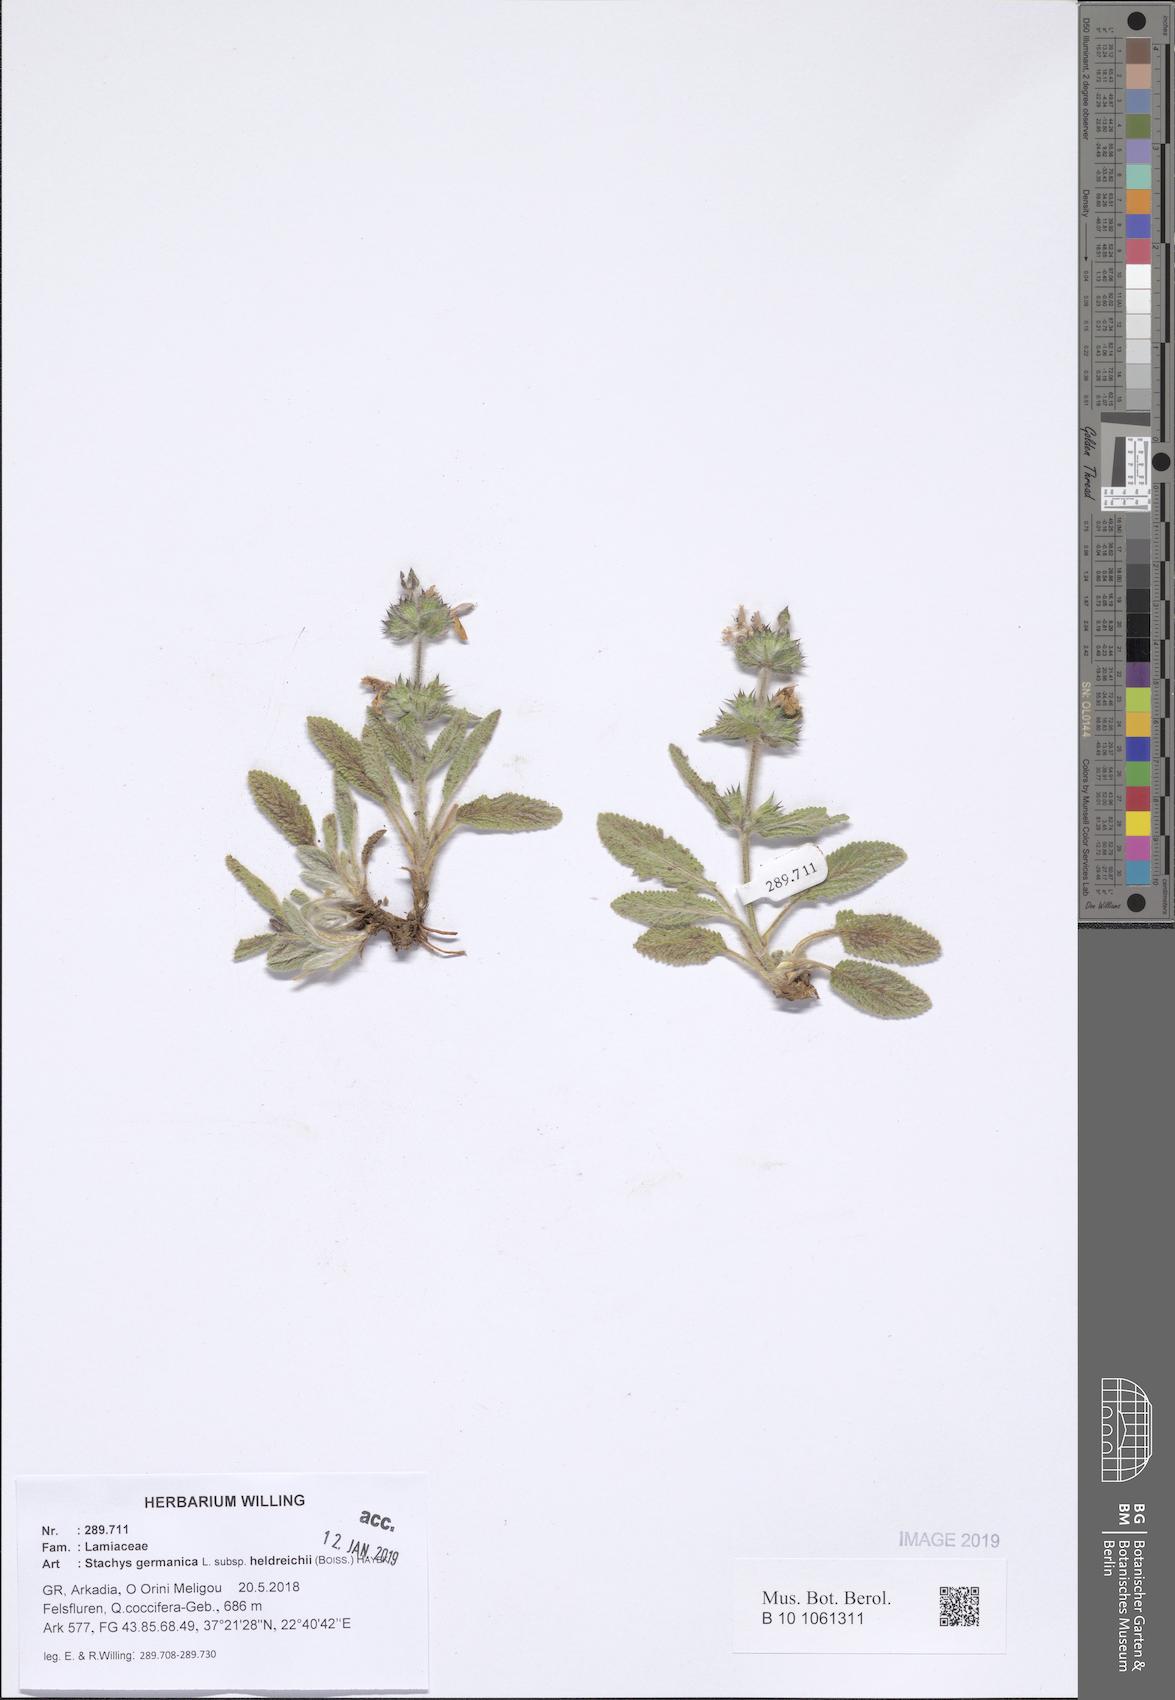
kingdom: Plantae
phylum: Tracheophyta
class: Magnoliopsida
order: Lamiales
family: Lamiaceae
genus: Stachys
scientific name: Stachys germanica
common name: Downy woundwort
